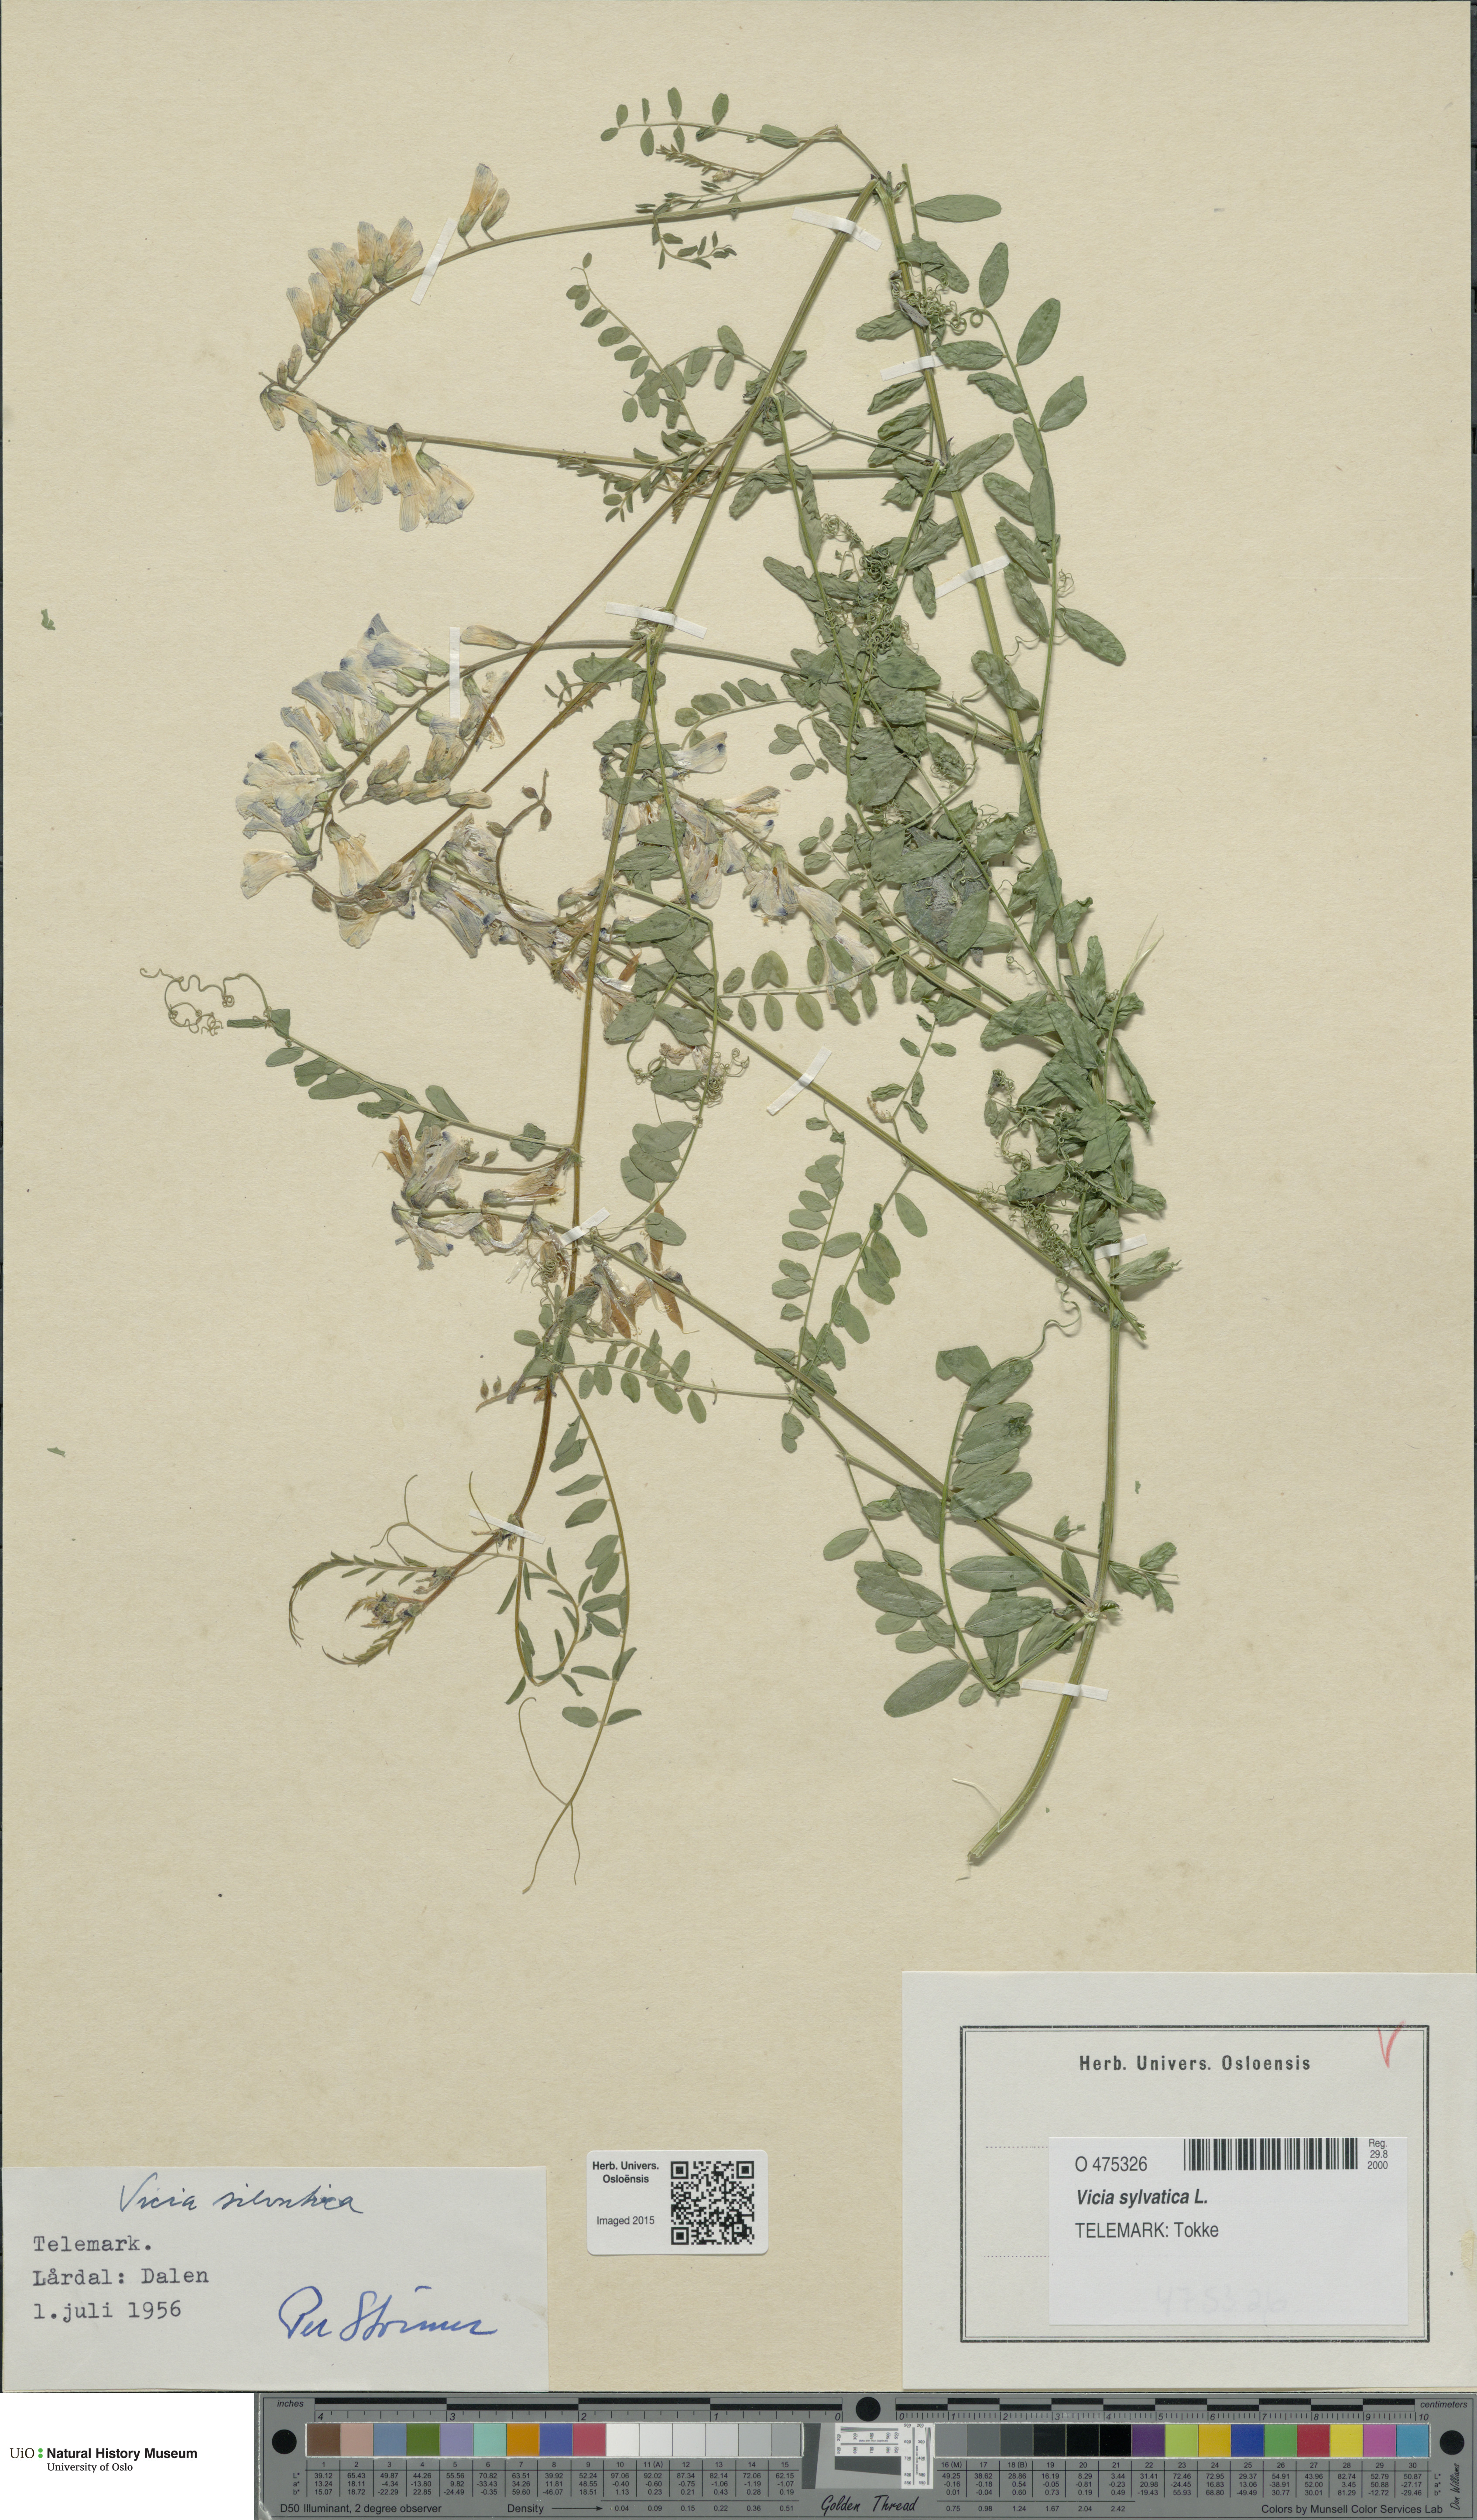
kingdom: Plantae
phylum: Tracheophyta
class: Magnoliopsida
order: Fabales
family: Fabaceae
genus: Vicia
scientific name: Vicia sylvatica
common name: Wood vetch
